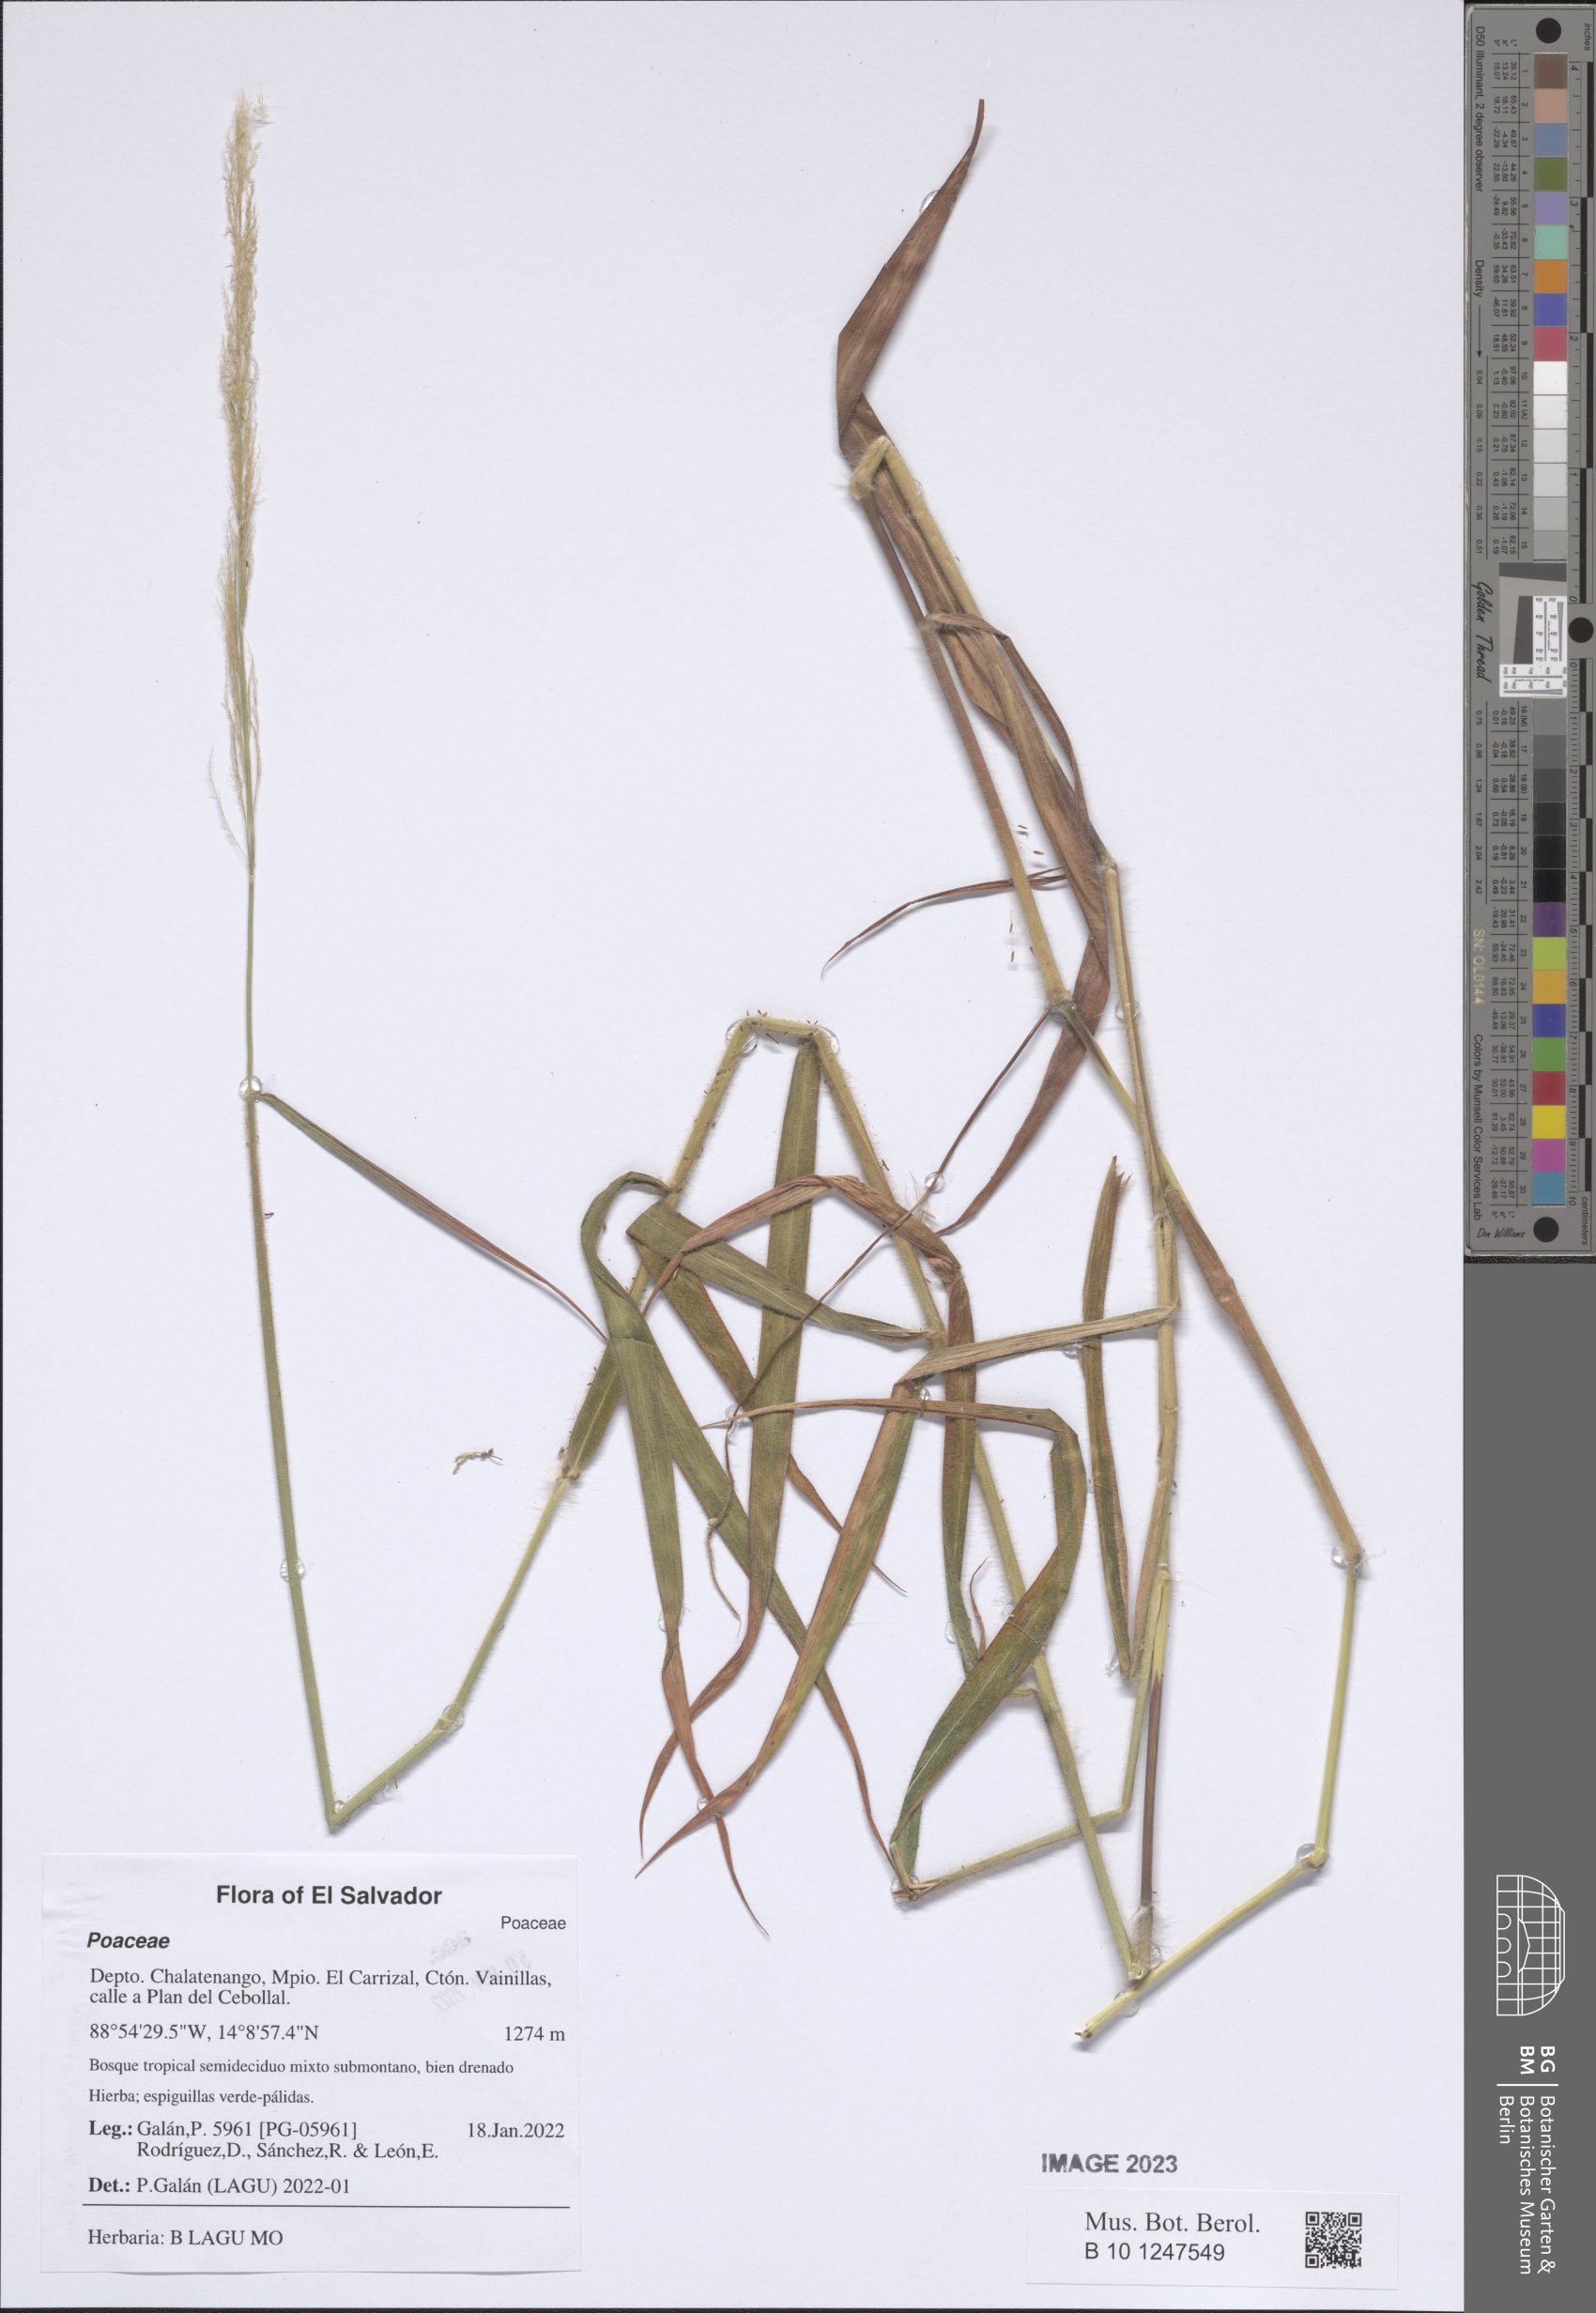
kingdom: Plantae
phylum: Tracheophyta
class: Liliopsida
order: Poales
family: Poaceae
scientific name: Poaceae
